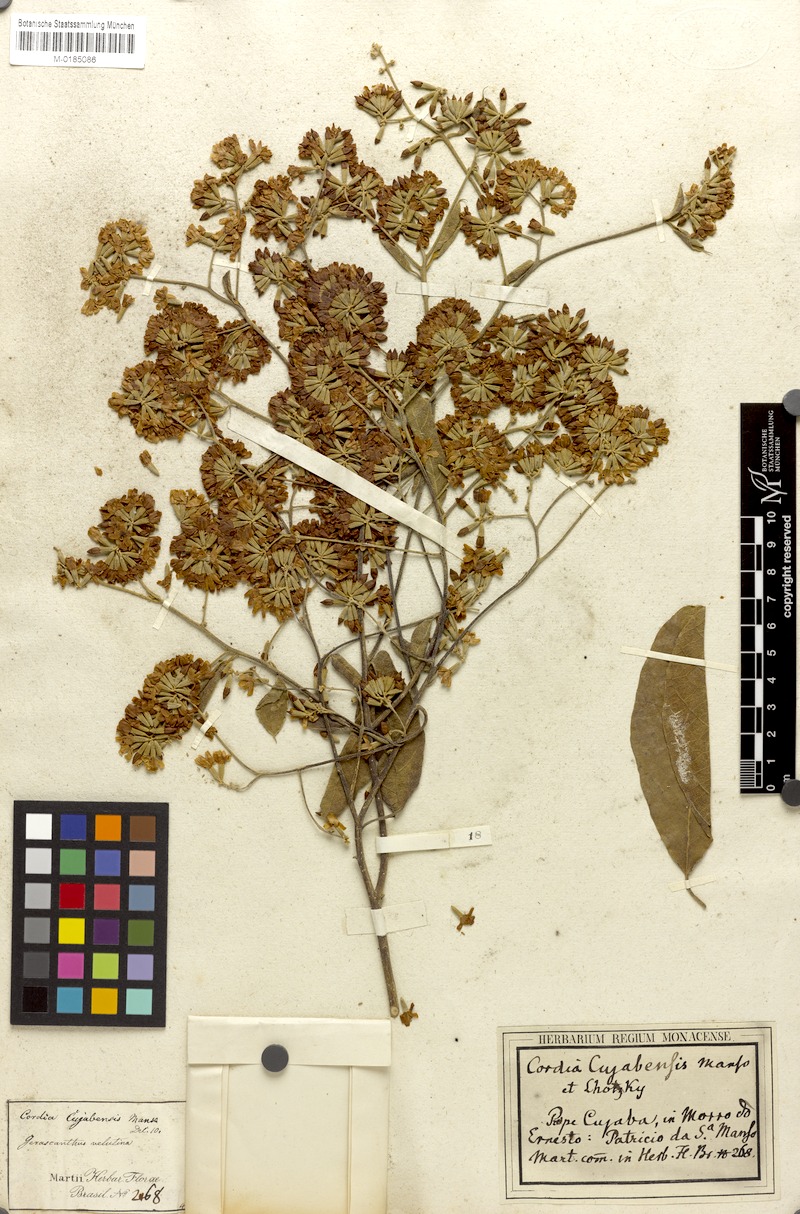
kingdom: Plantae
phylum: Tracheophyta
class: Magnoliopsida
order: Boraginales
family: Cordiaceae
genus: Cordia
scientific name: Cordia alliodora
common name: Spanish elm
